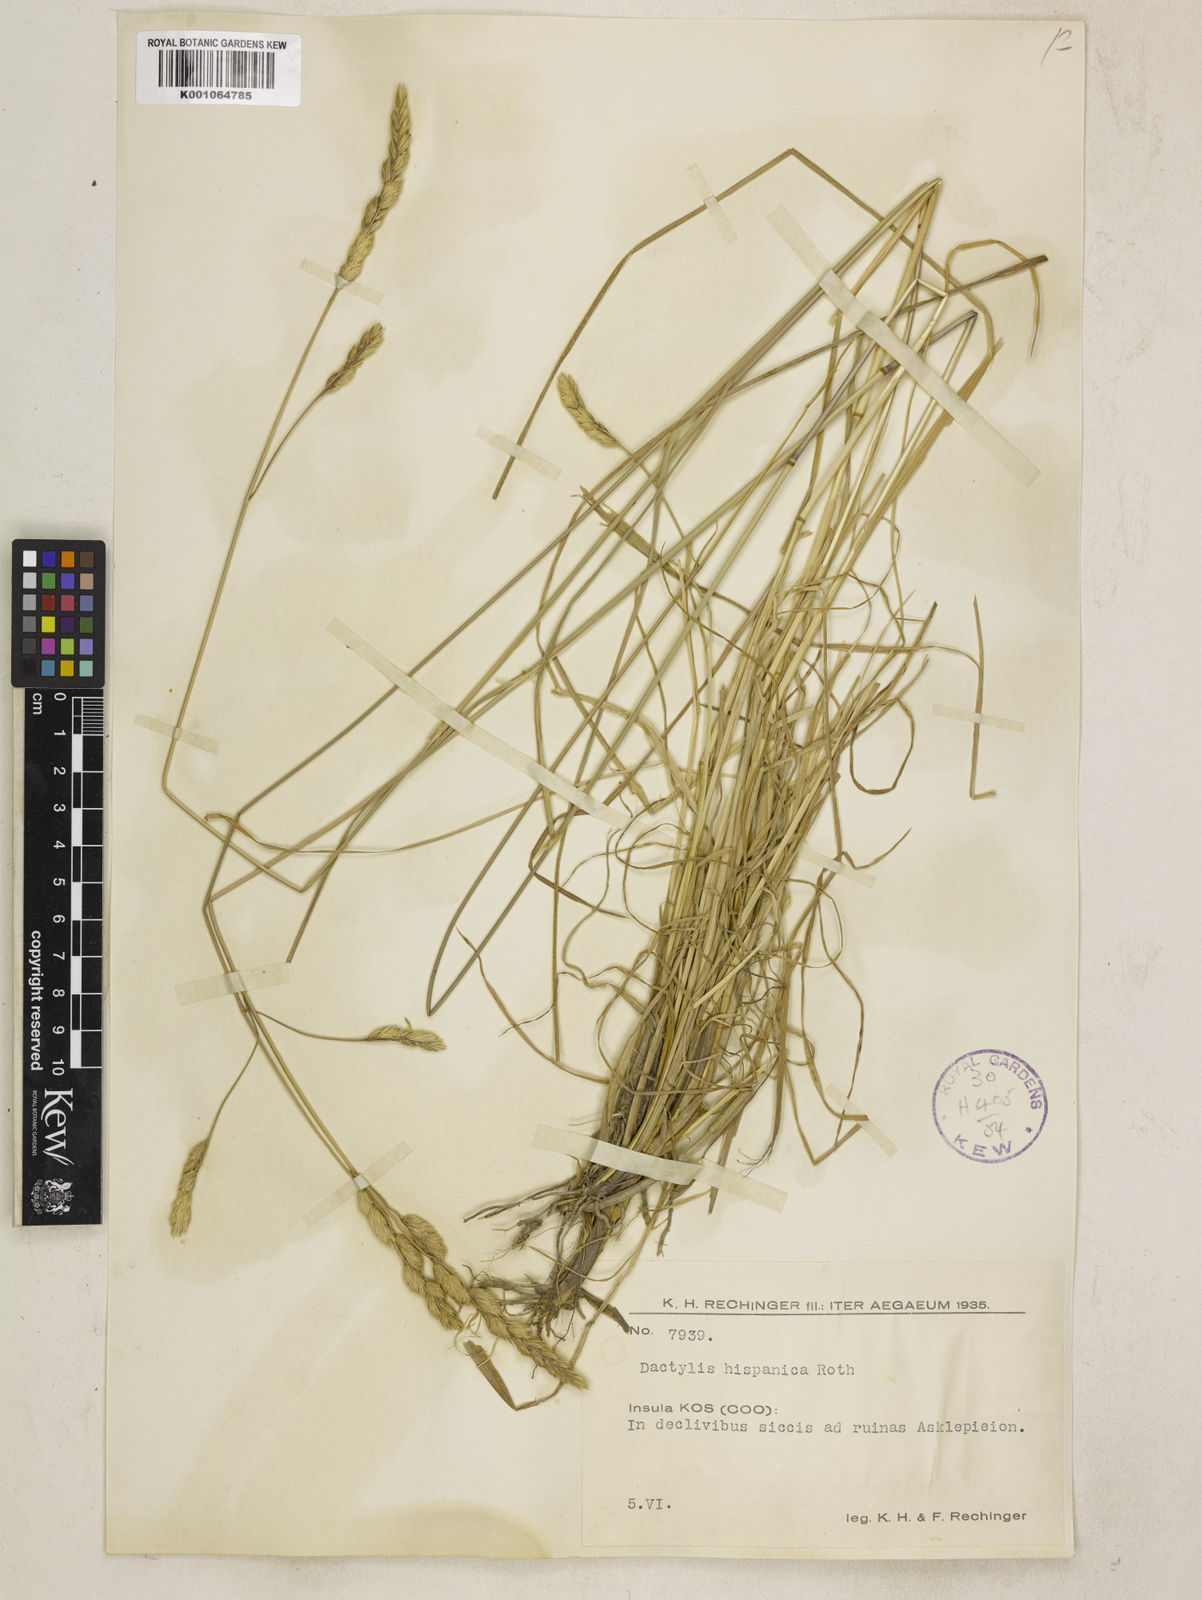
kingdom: Plantae
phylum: Tracheophyta
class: Liliopsida
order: Poales
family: Poaceae
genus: Dactylis
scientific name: Dactylis glomerata
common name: Orchardgrass
